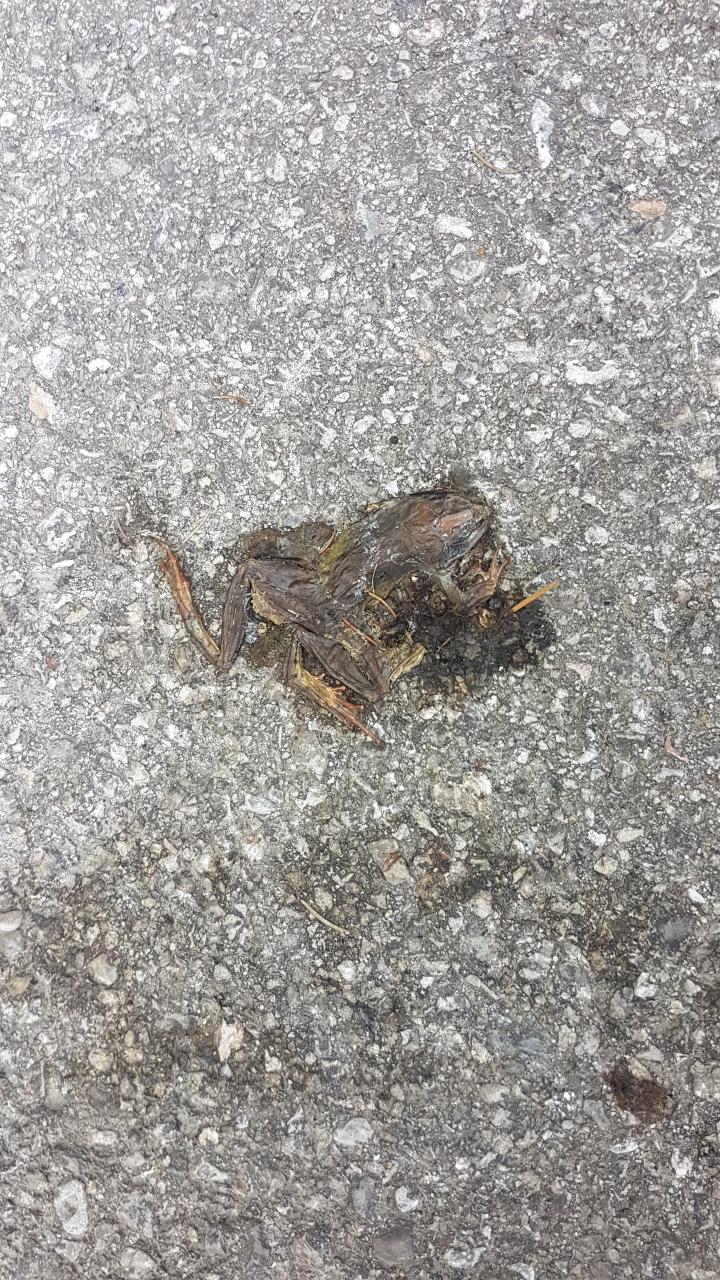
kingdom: Animalia
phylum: Chordata
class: Amphibia
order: Anura
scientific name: Anura
